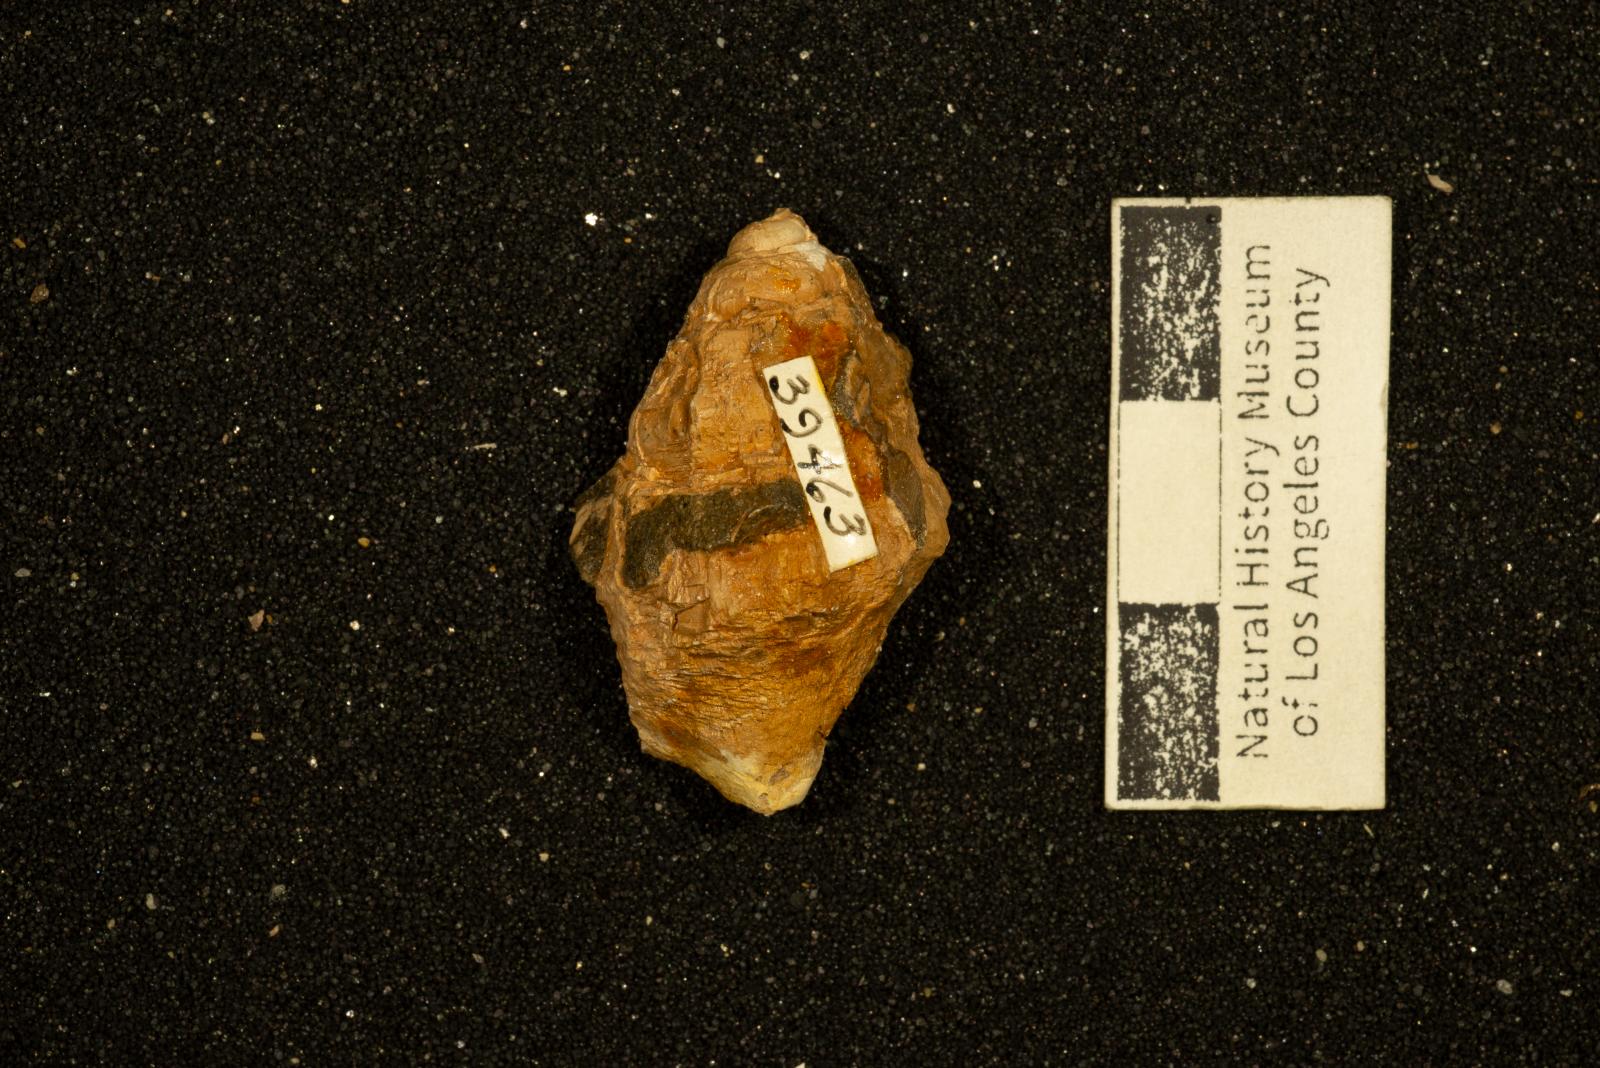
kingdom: Animalia
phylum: Mollusca
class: Gastropoda
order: Neogastropoda
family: Perissityidae
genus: Forsia
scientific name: Forsia baia
